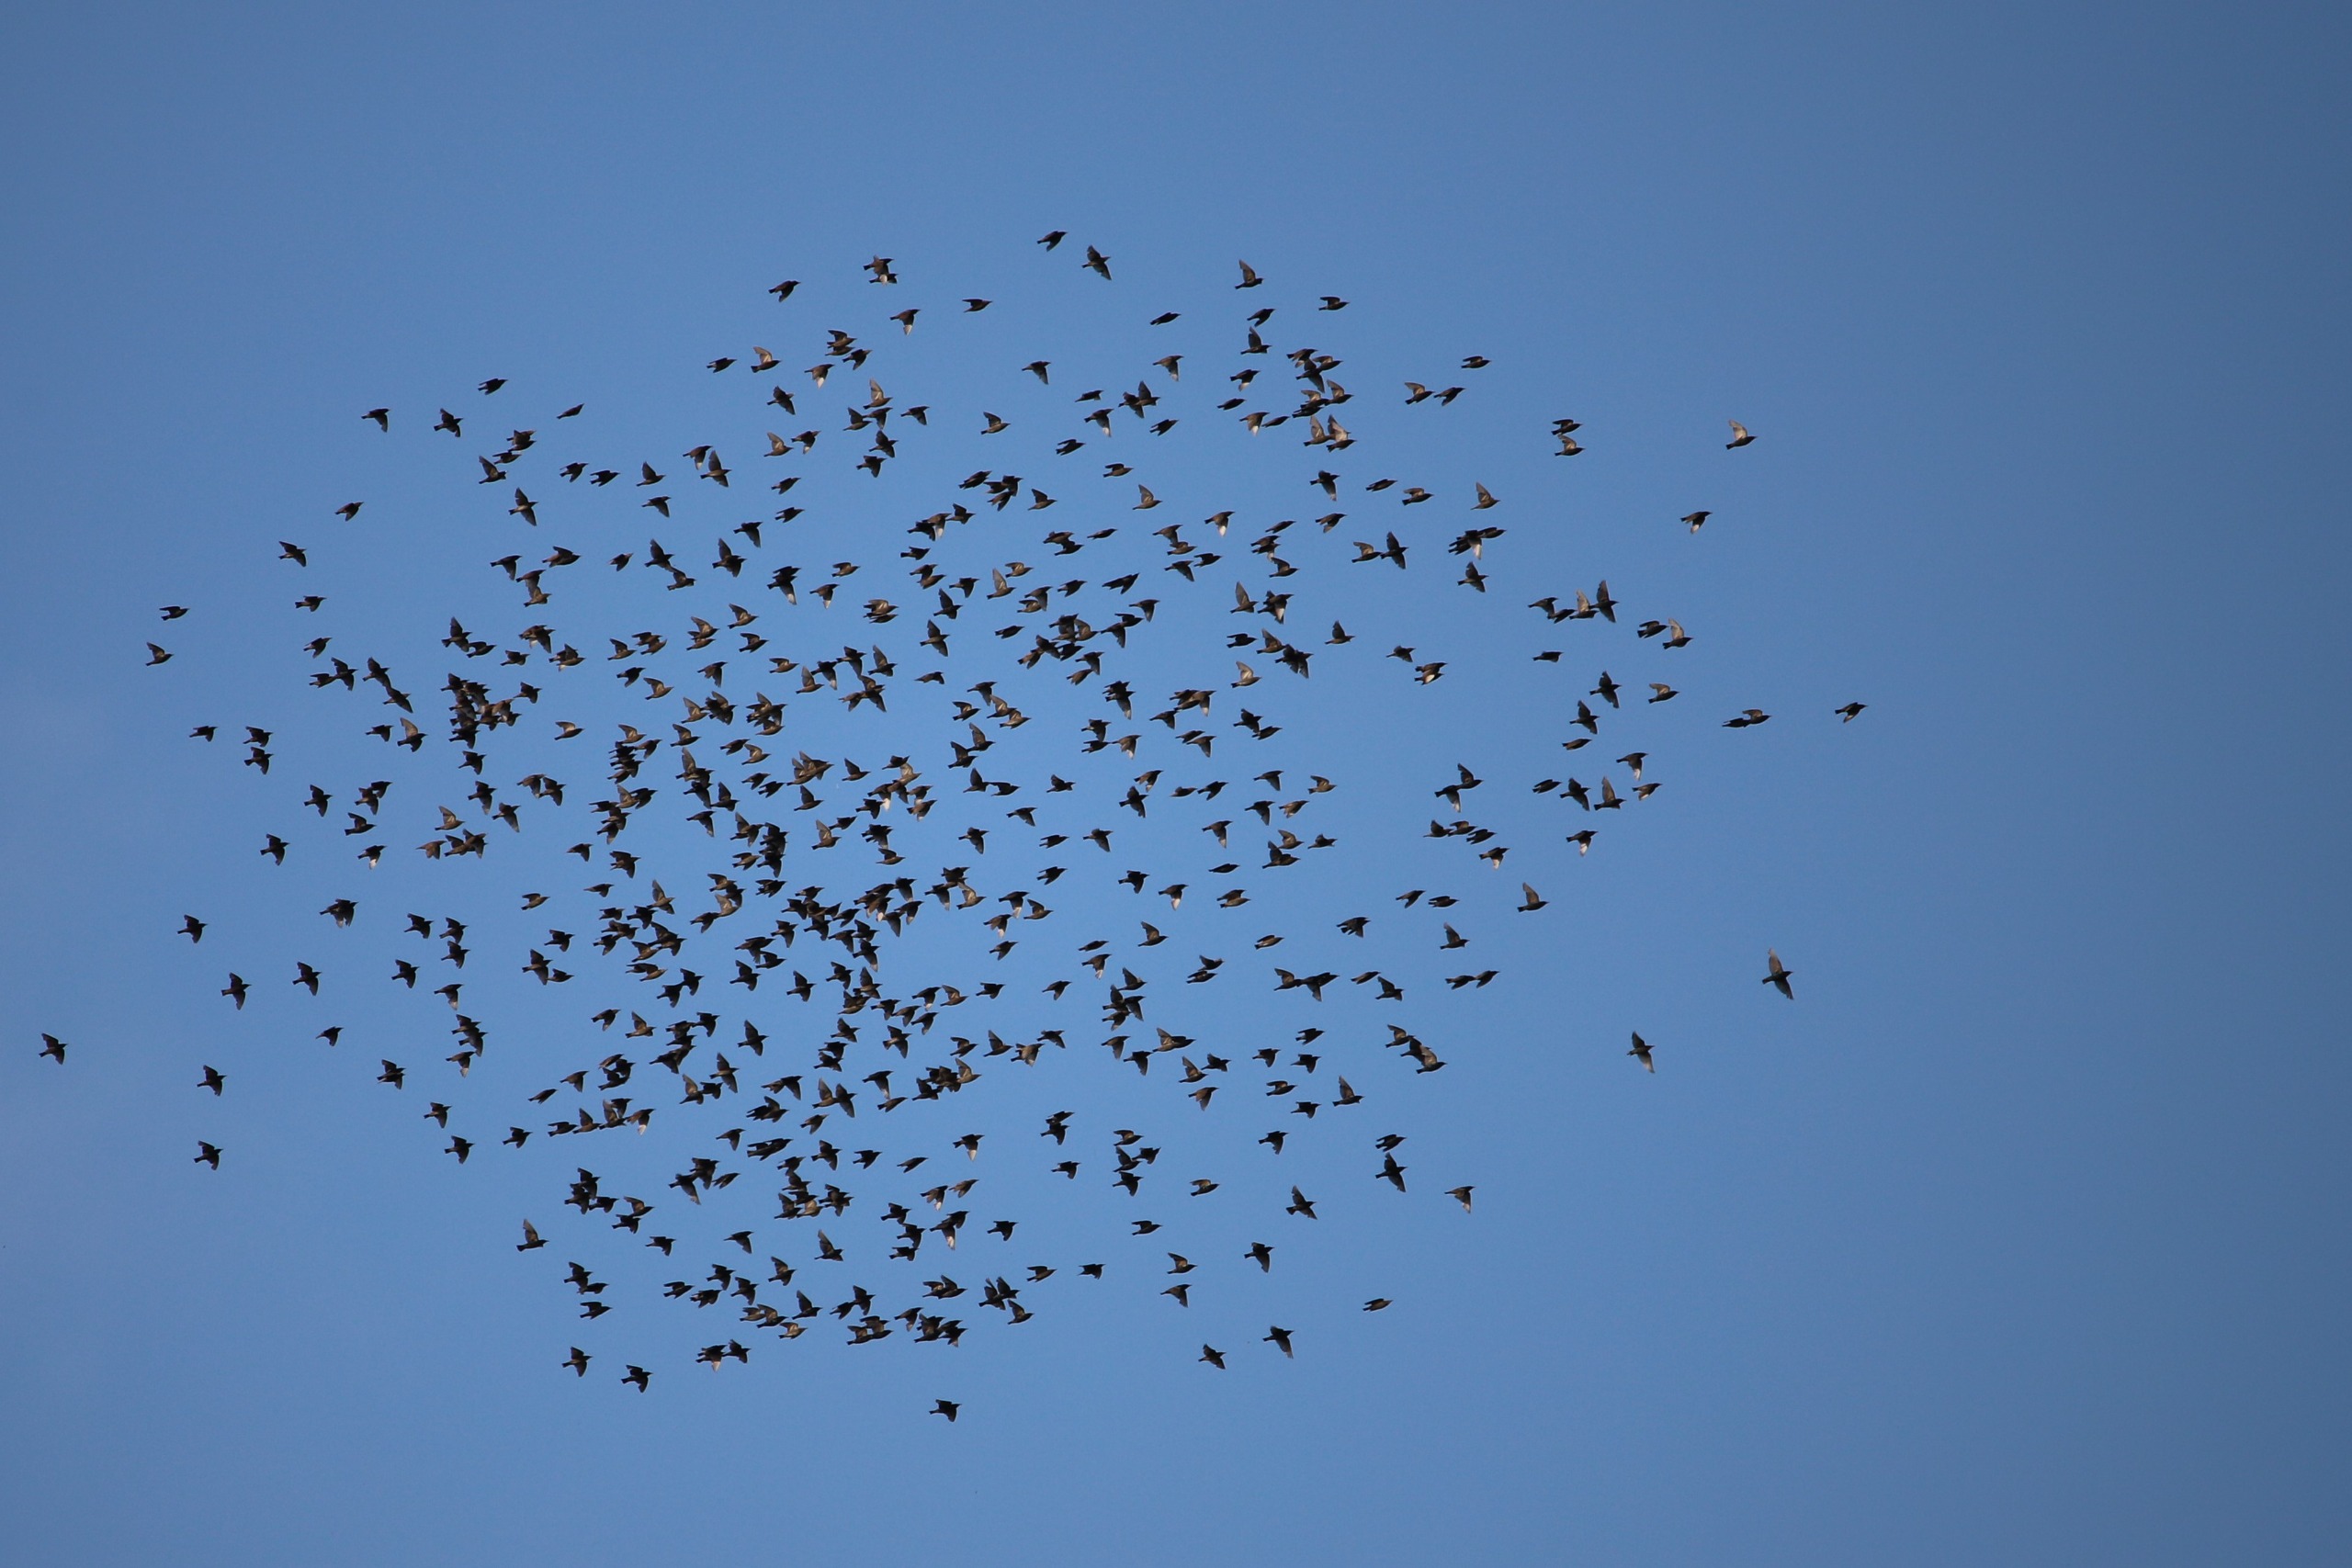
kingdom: Animalia
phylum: Chordata
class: Aves
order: Passeriformes
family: Sturnidae
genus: Sturnus
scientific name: Sturnus vulgaris
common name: Stær
